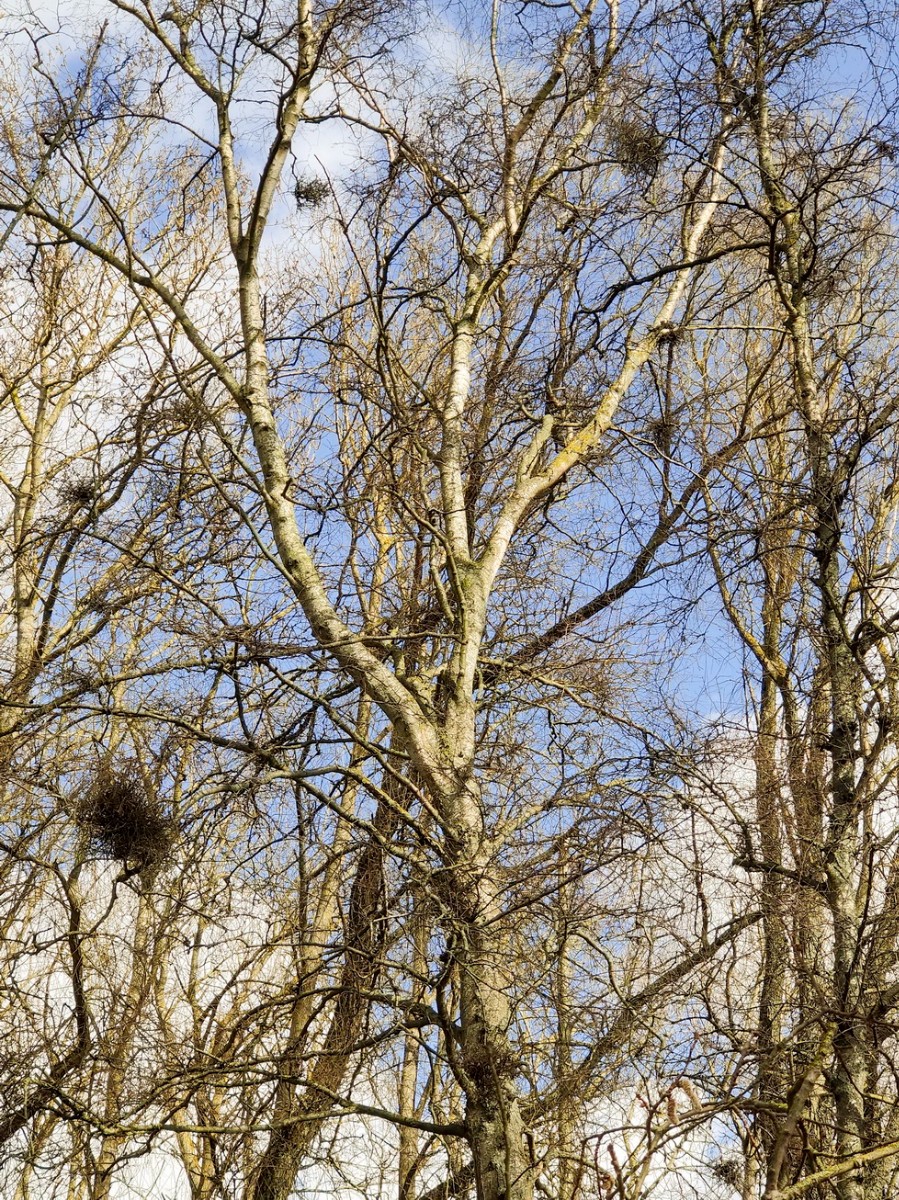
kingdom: Fungi
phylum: Ascomycota
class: Taphrinomycetes
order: Taphrinales
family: Taphrinaceae
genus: Taphrina
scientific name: Taphrina betulina
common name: hekse-sækdug
